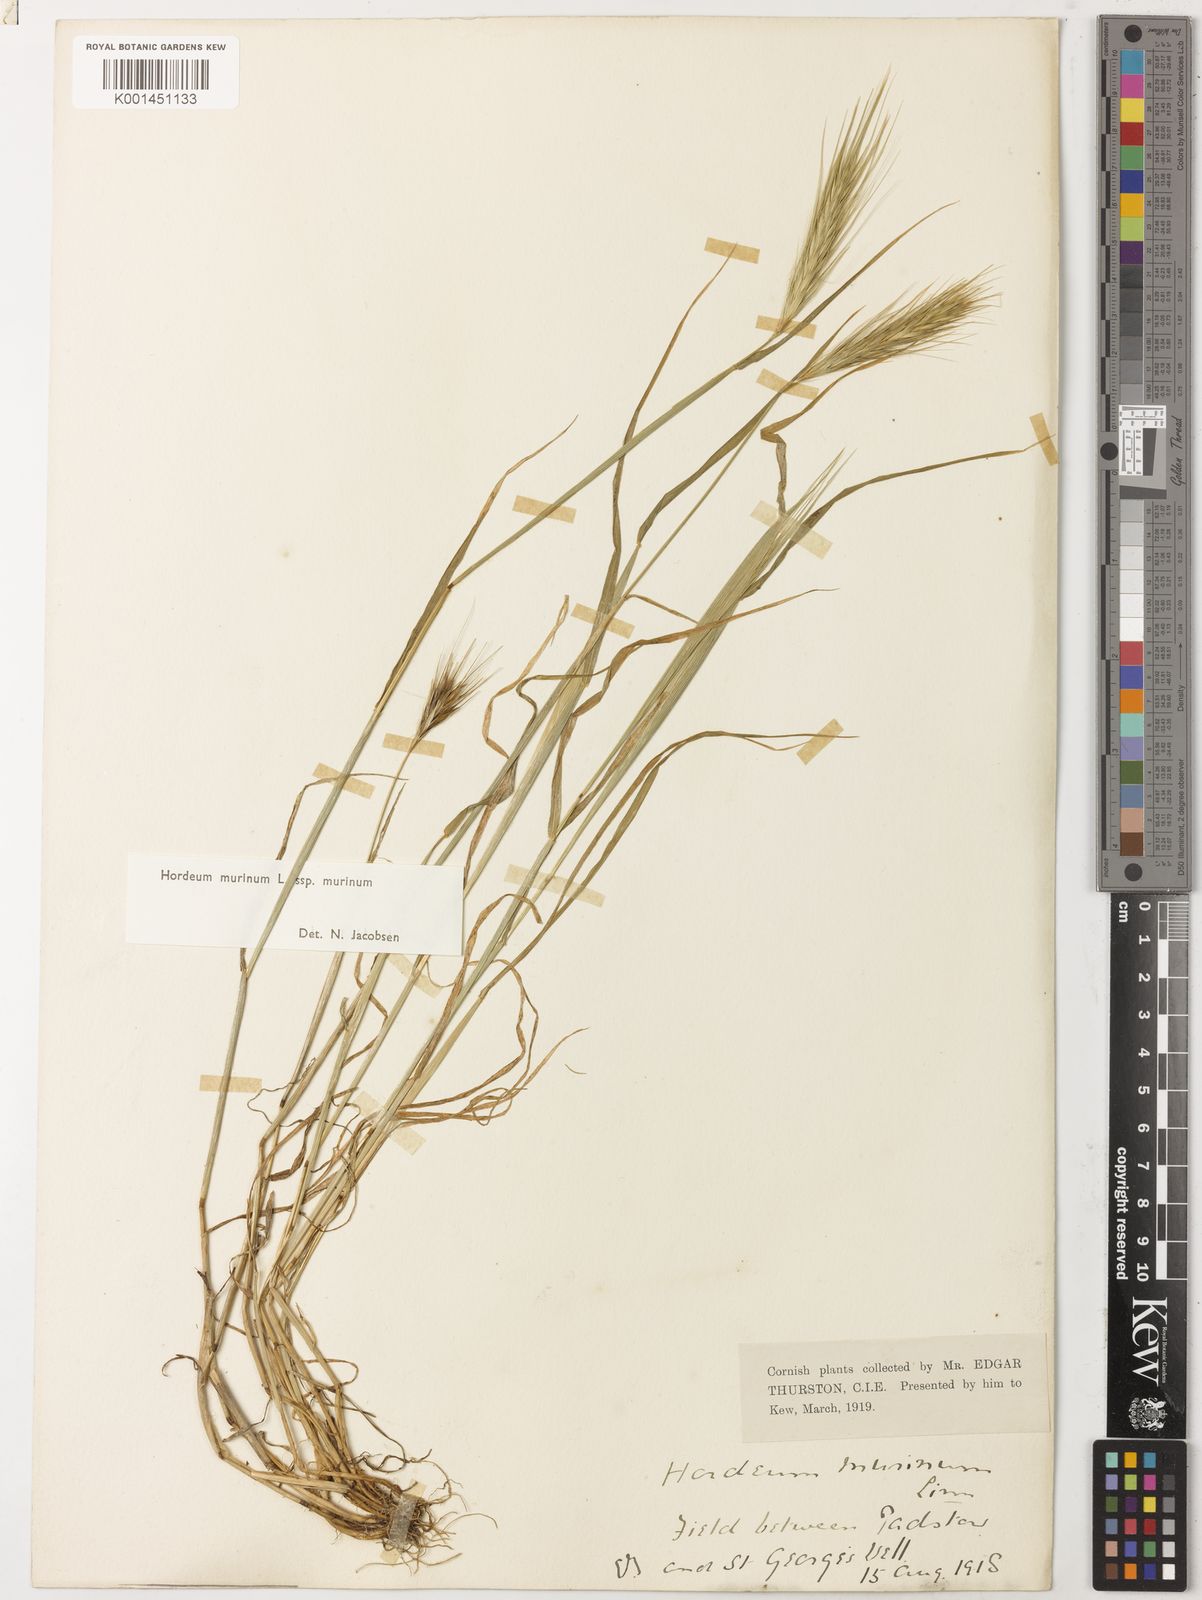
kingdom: Plantae
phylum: Tracheophyta
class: Liliopsida
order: Poales
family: Poaceae
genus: Hordeum
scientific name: Hordeum murinum
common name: Wall barley
